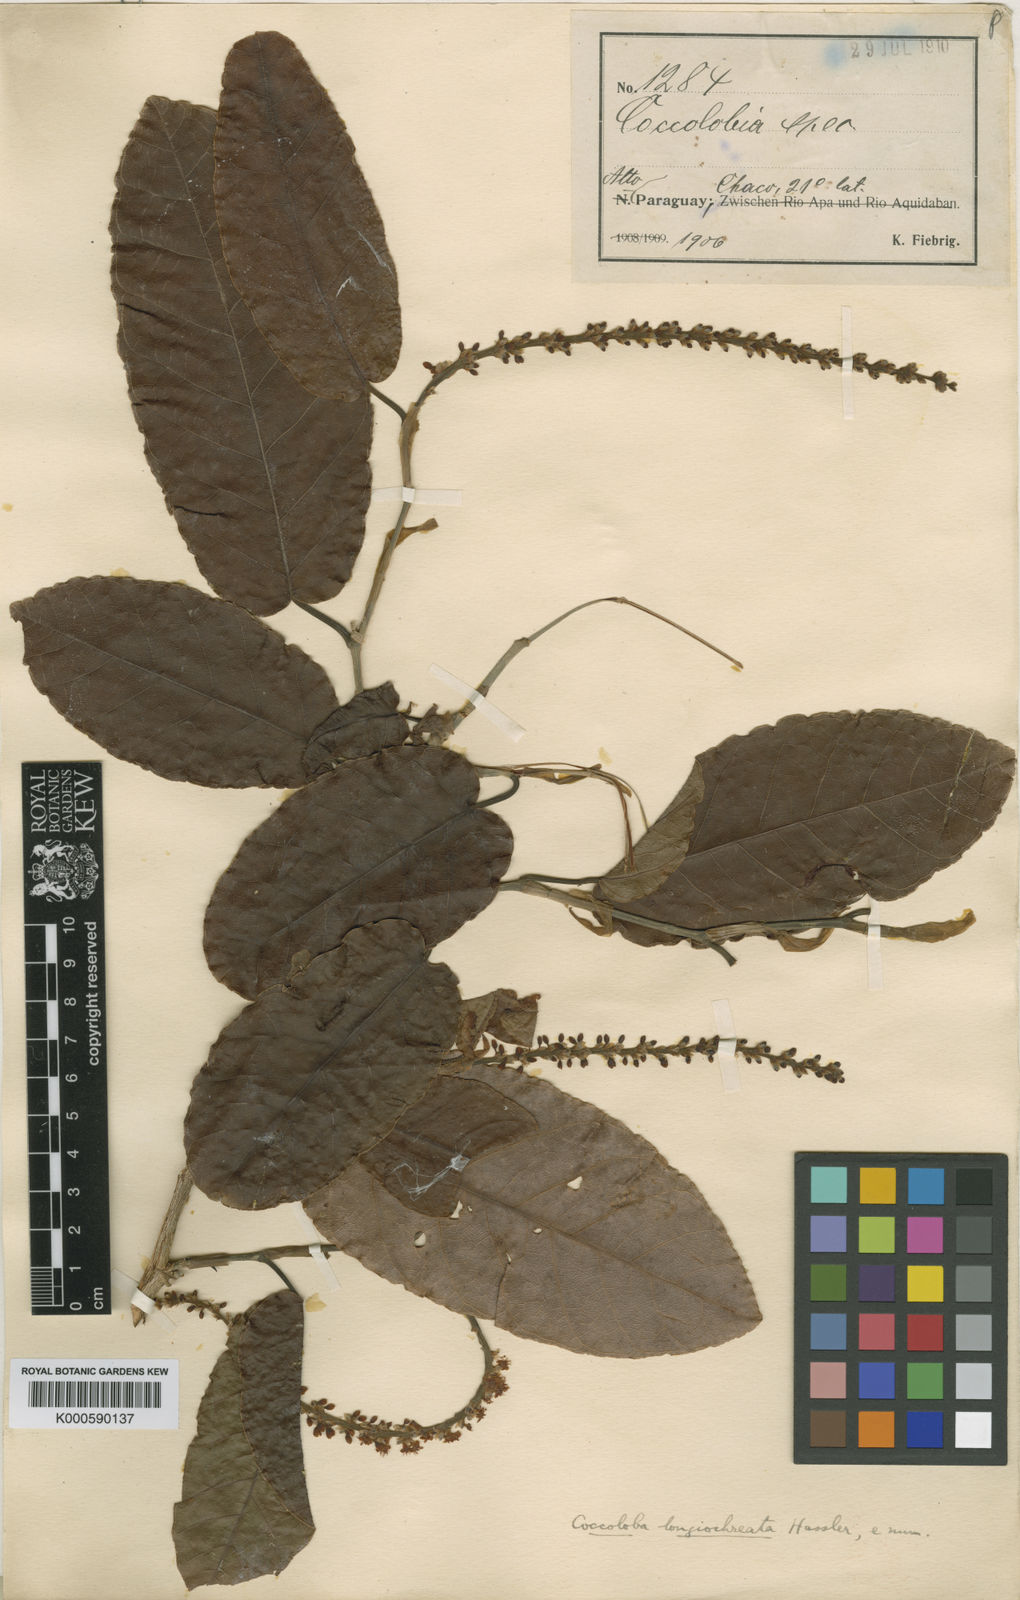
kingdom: Plantae
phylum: Tracheophyta
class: Magnoliopsida
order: Caryophyllales
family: Polygonaceae
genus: Coccoloba
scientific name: Coccoloba cujabensis
